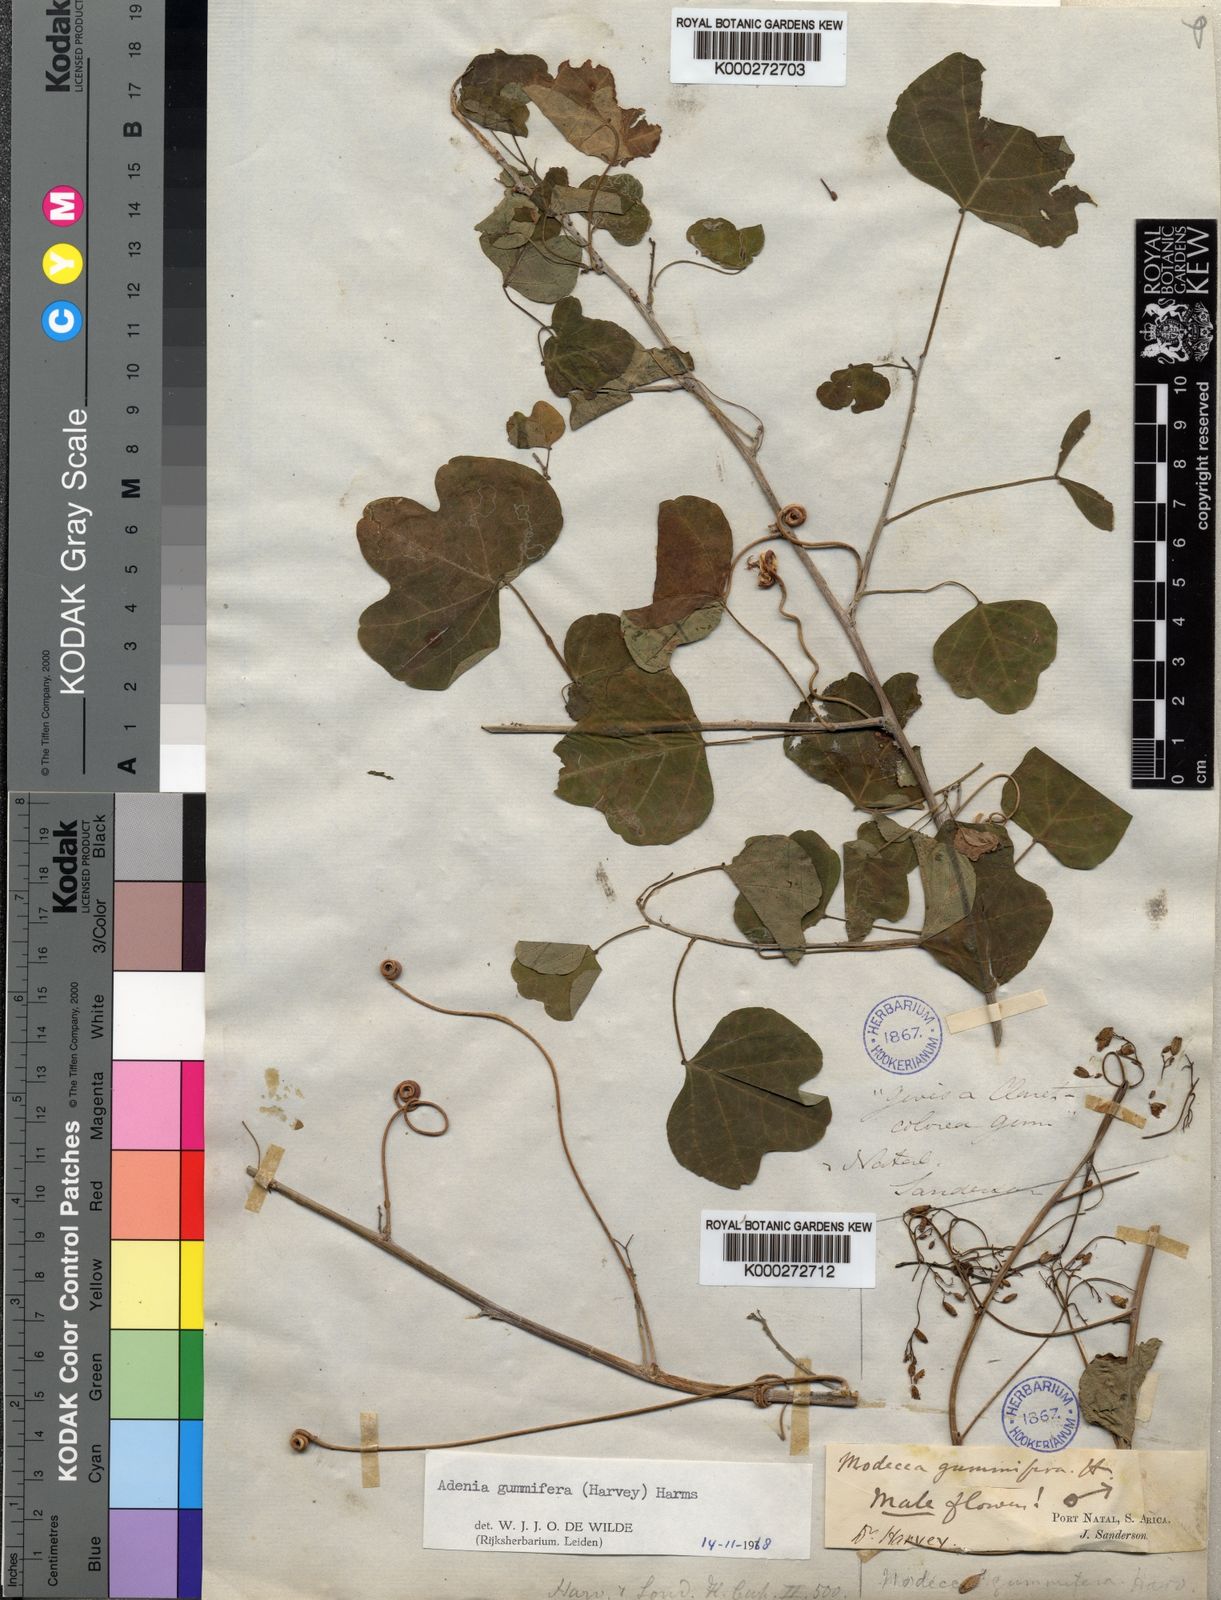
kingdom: Plantae
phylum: Tracheophyta
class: Magnoliopsida
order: Malpighiales
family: Passifloraceae
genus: Adenia
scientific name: Adenia cissampeloides
